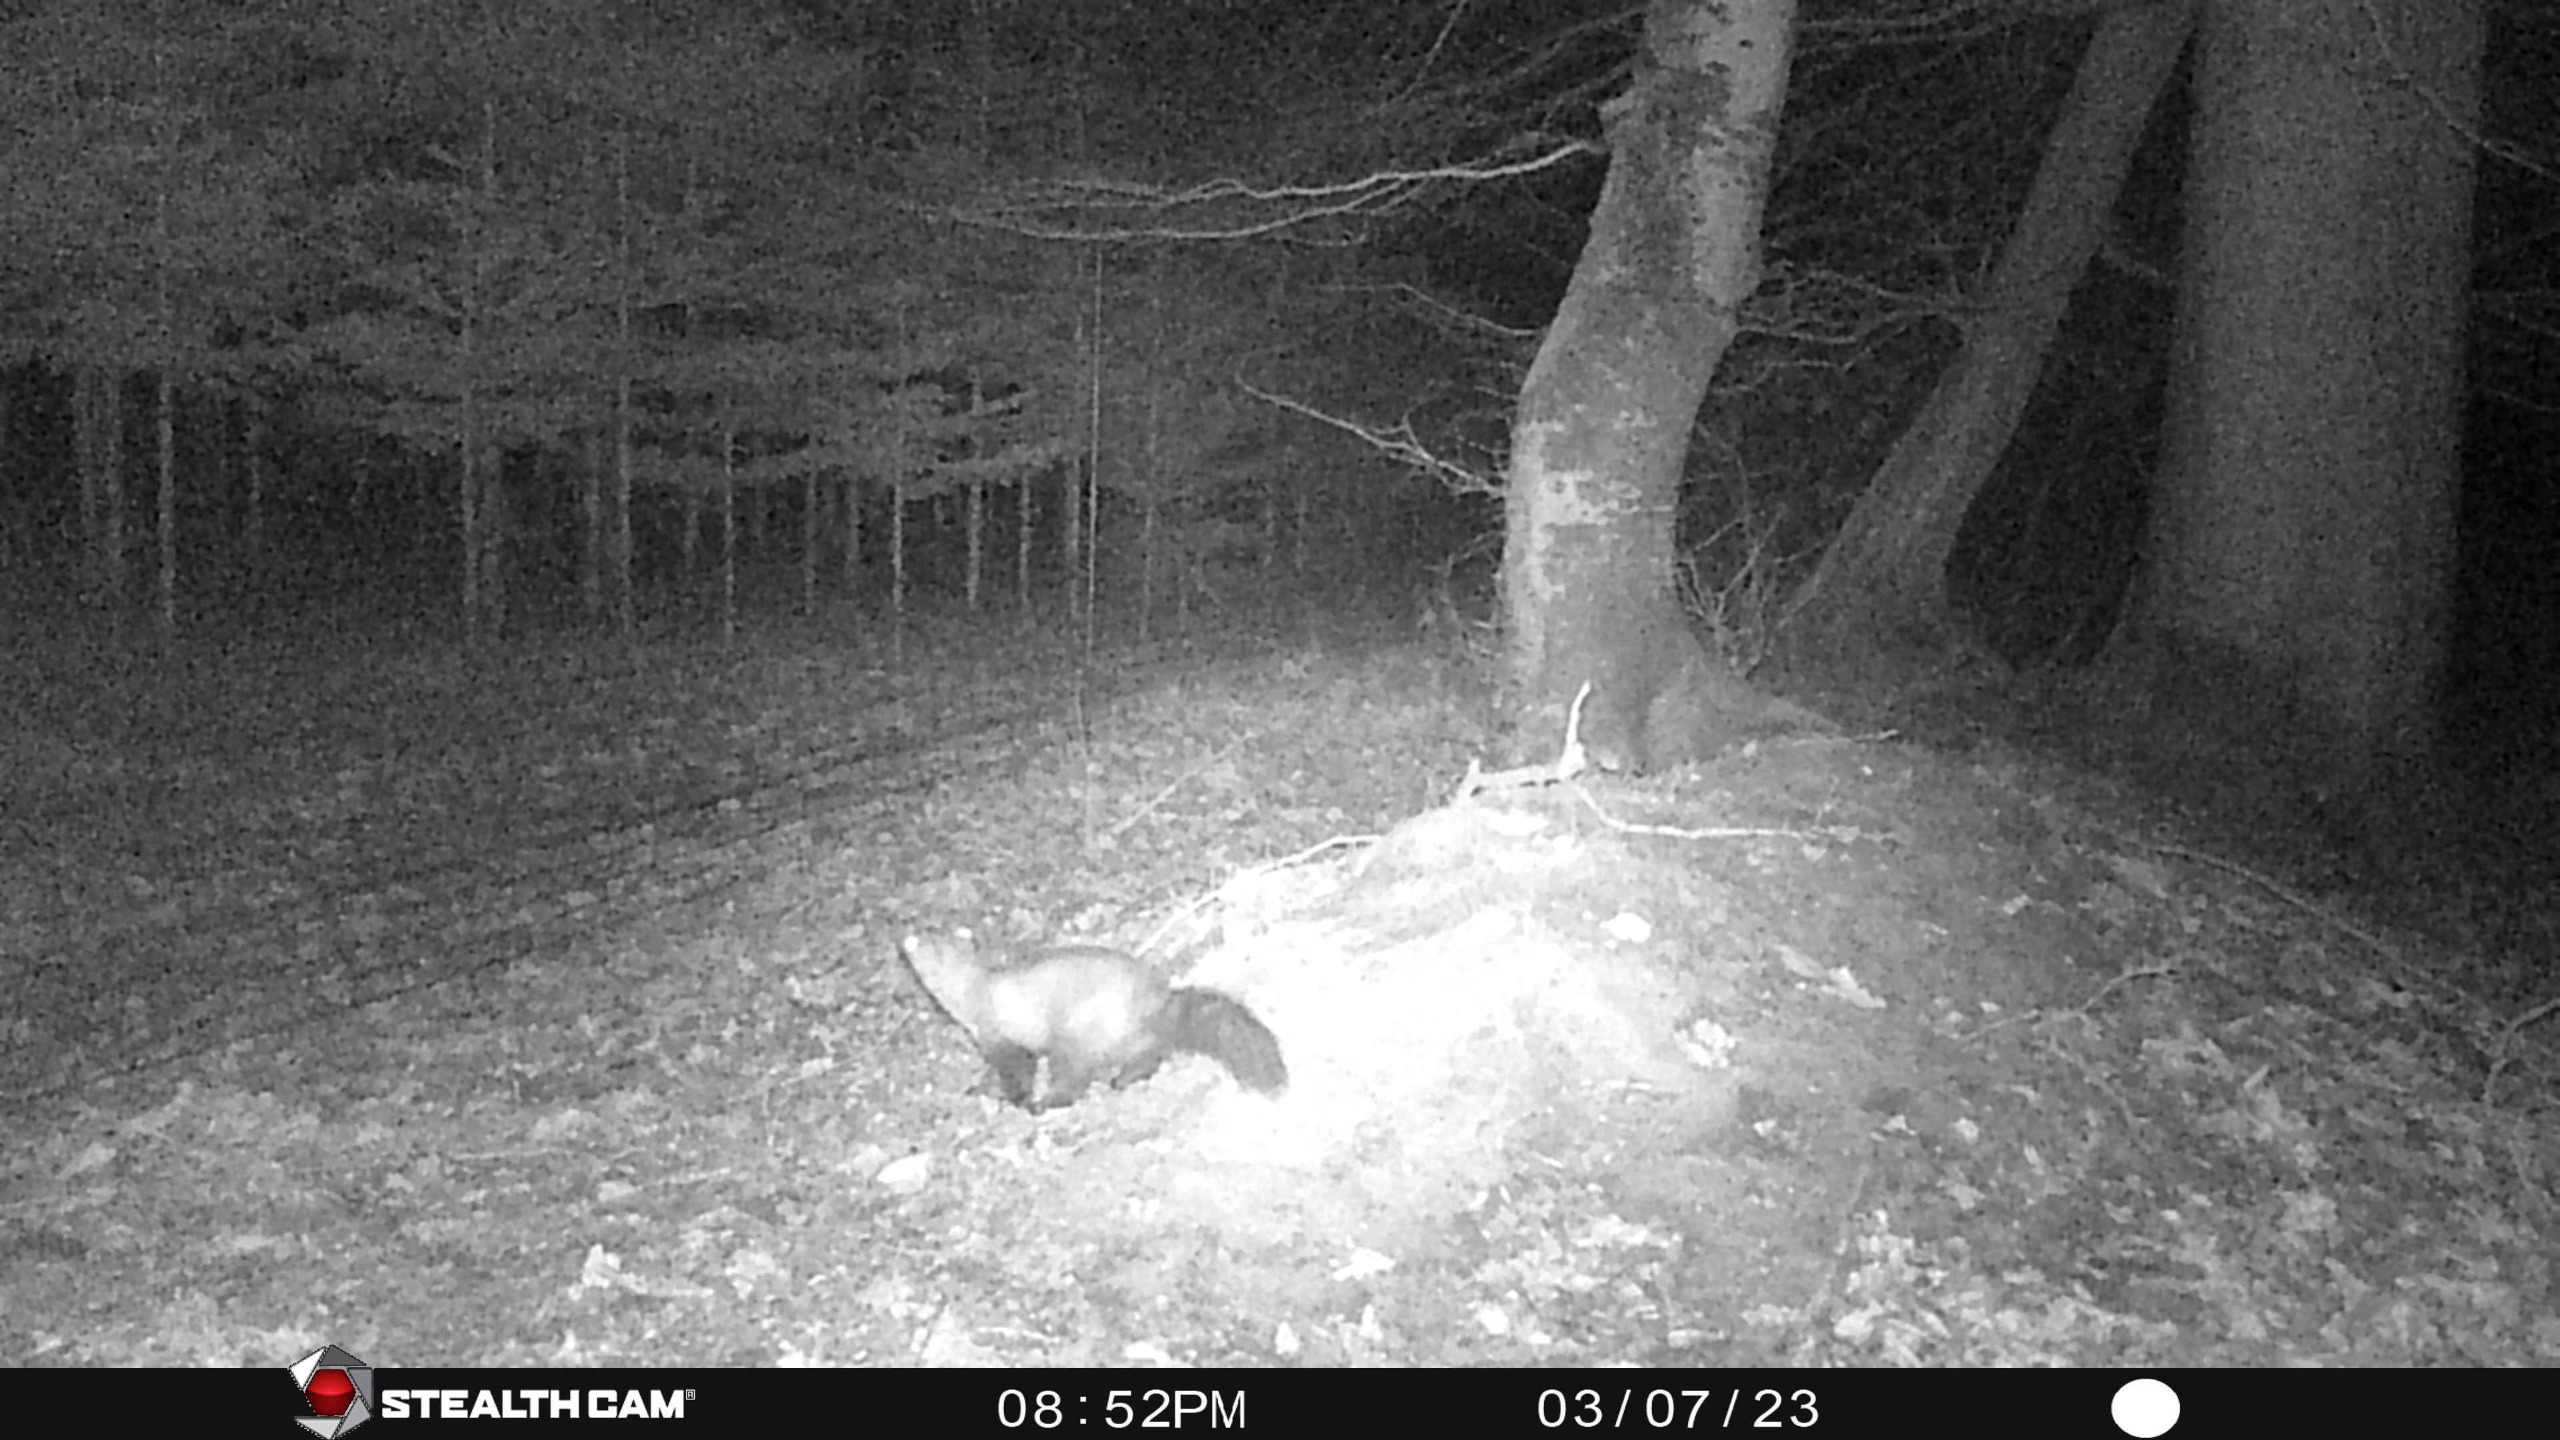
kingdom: Animalia
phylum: Chordata
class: Mammalia
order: Carnivora
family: Mustelidae
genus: Martes
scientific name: Martes foina
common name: Husmår
